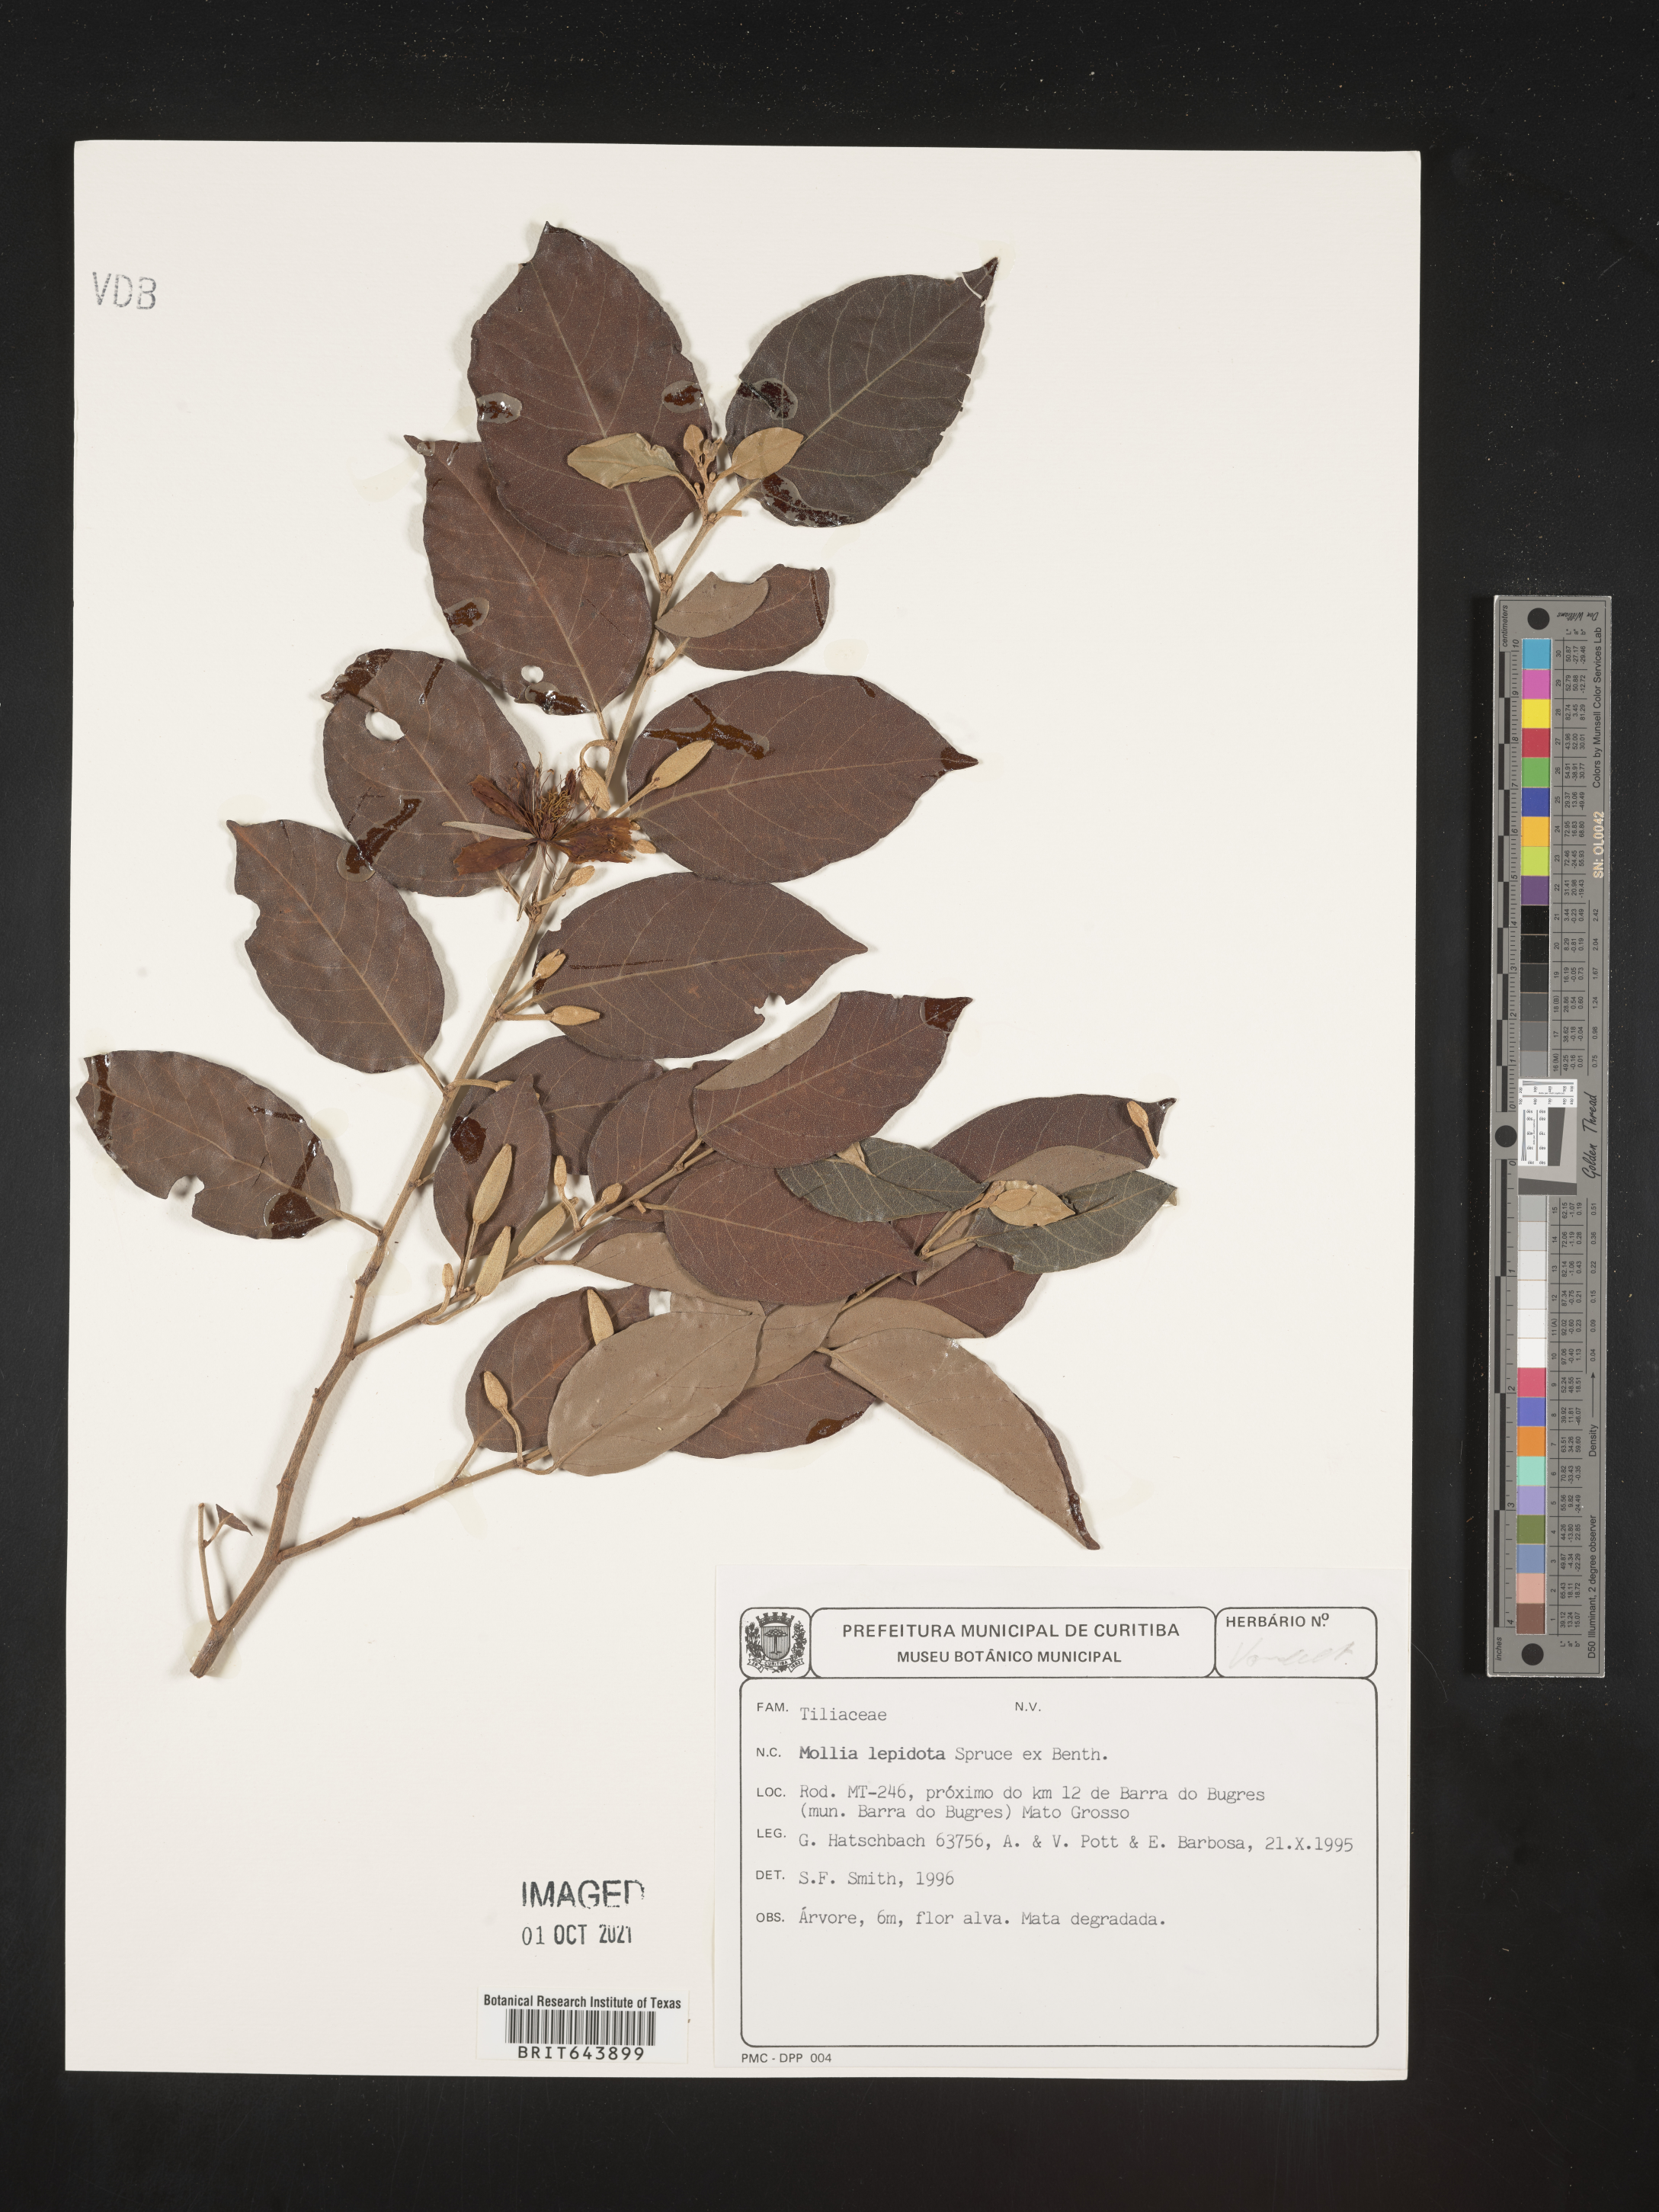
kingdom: Plantae
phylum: Tracheophyta
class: Magnoliopsida
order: Malvales
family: Malvaceae
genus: Mollia
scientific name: Mollia
